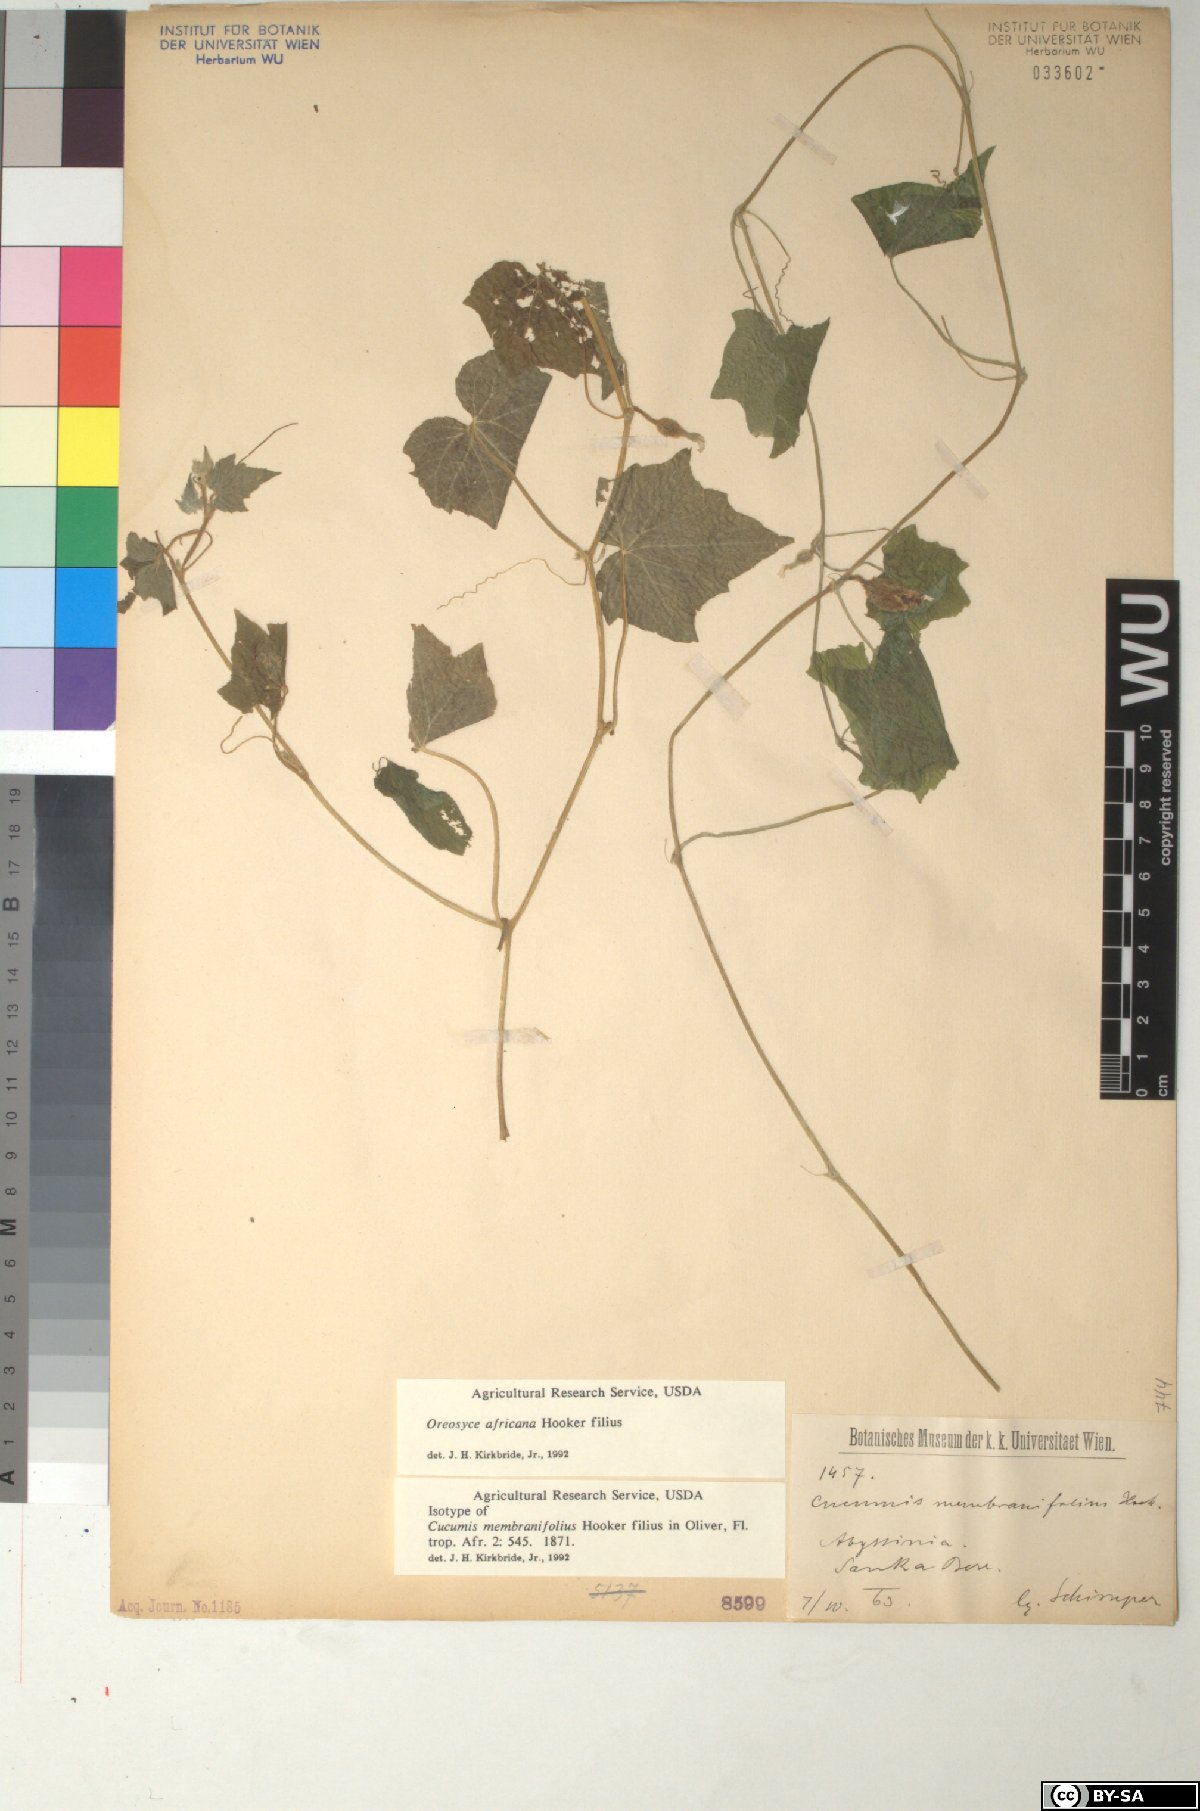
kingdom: Plantae
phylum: Tracheophyta
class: Magnoliopsida
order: Cucurbitales
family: Cucurbitaceae
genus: Cucumis
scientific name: Cucumis oreosyce
